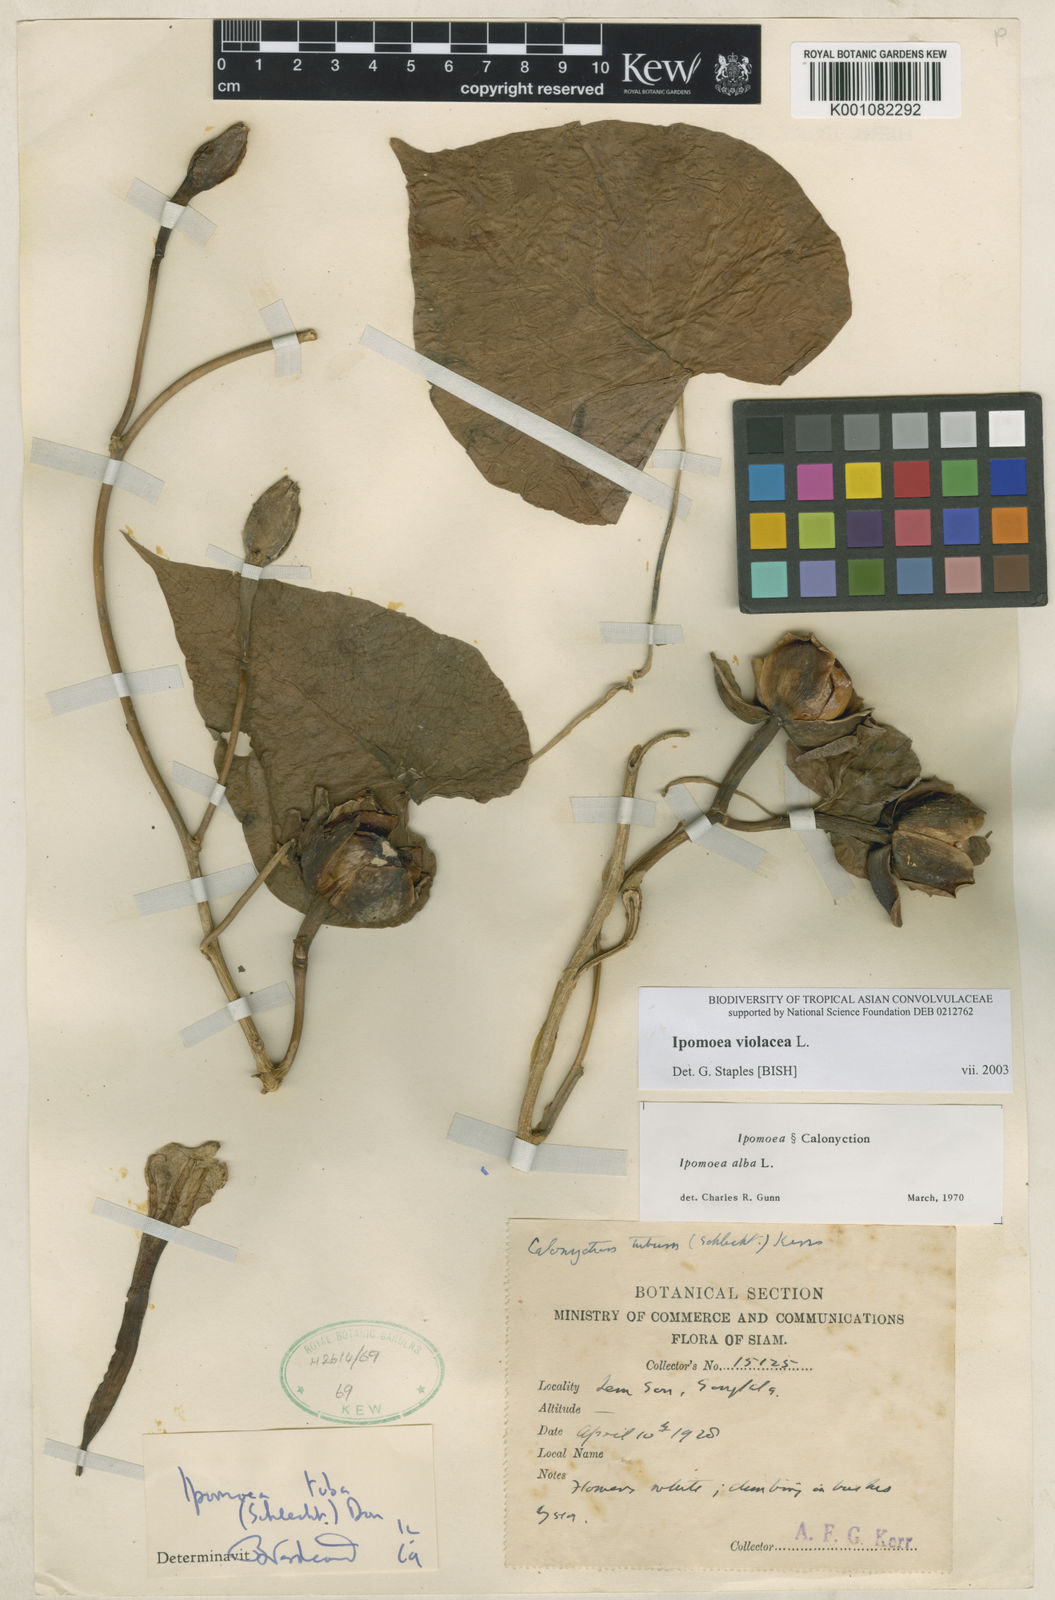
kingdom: Plantae
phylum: Tracheophyta
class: Magnoliopsida
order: Solanales
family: Convolvulaceae
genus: Ipomoea
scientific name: Ipomoea violacea
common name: Beach moonflower
